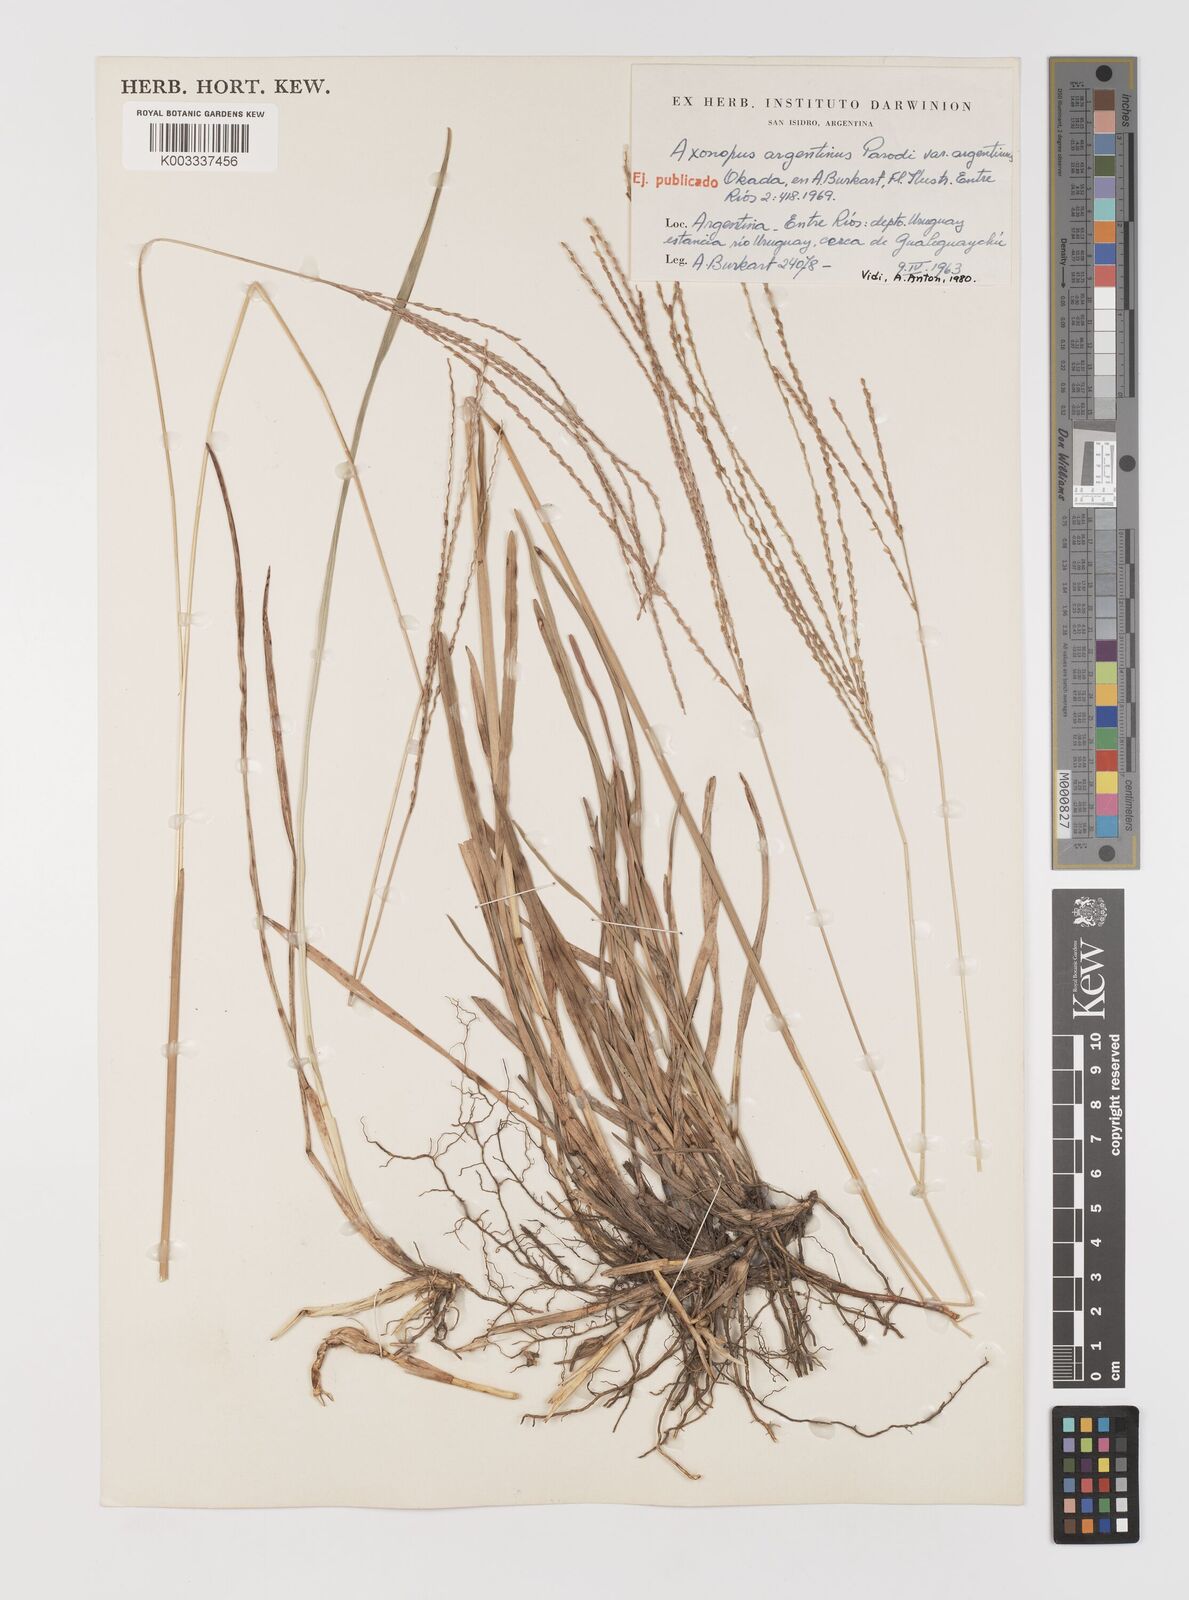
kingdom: Plantae
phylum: Tracheophyta
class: Liliopsida
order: Poales
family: Poaceae
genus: Axonopus
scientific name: Axonopus argentinus
